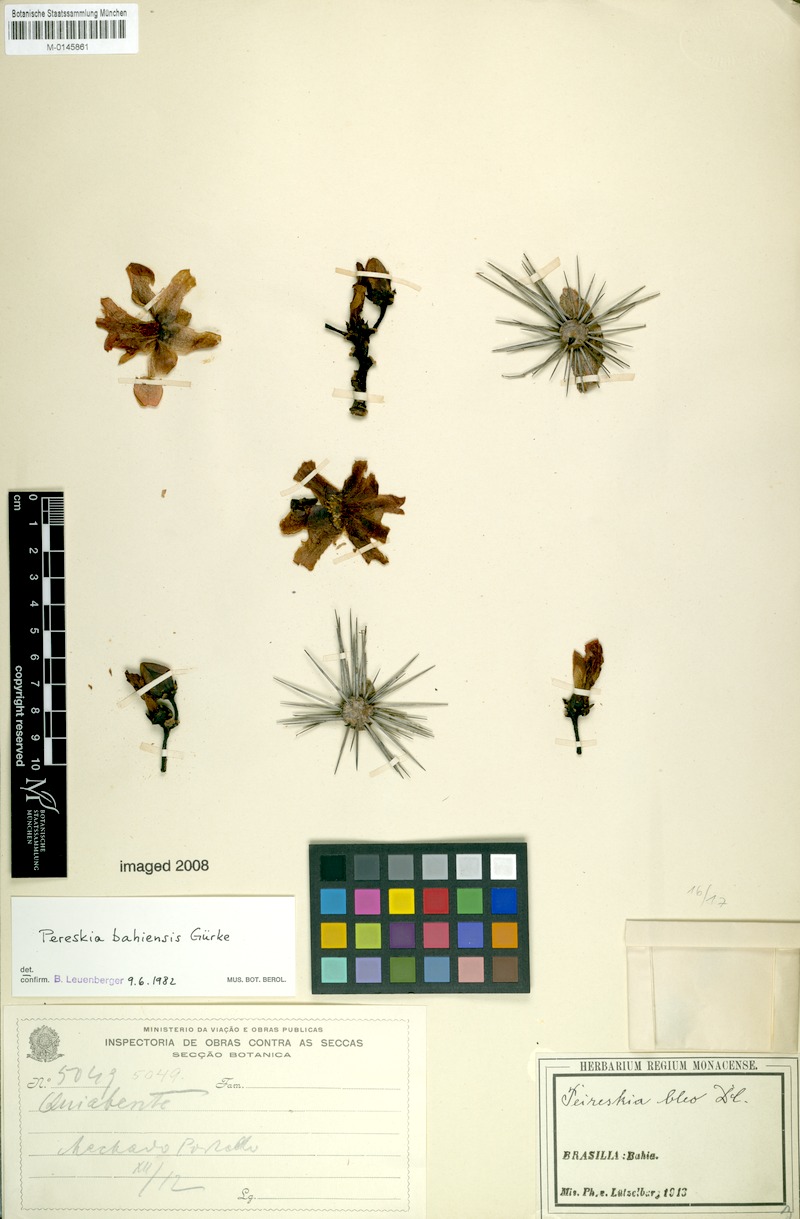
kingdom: Plantae
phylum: Tracheophyta
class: Magnoliopsida
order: Caryophyllales
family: Cactaceae
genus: Pereskia
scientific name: Pereskia bahiensis
